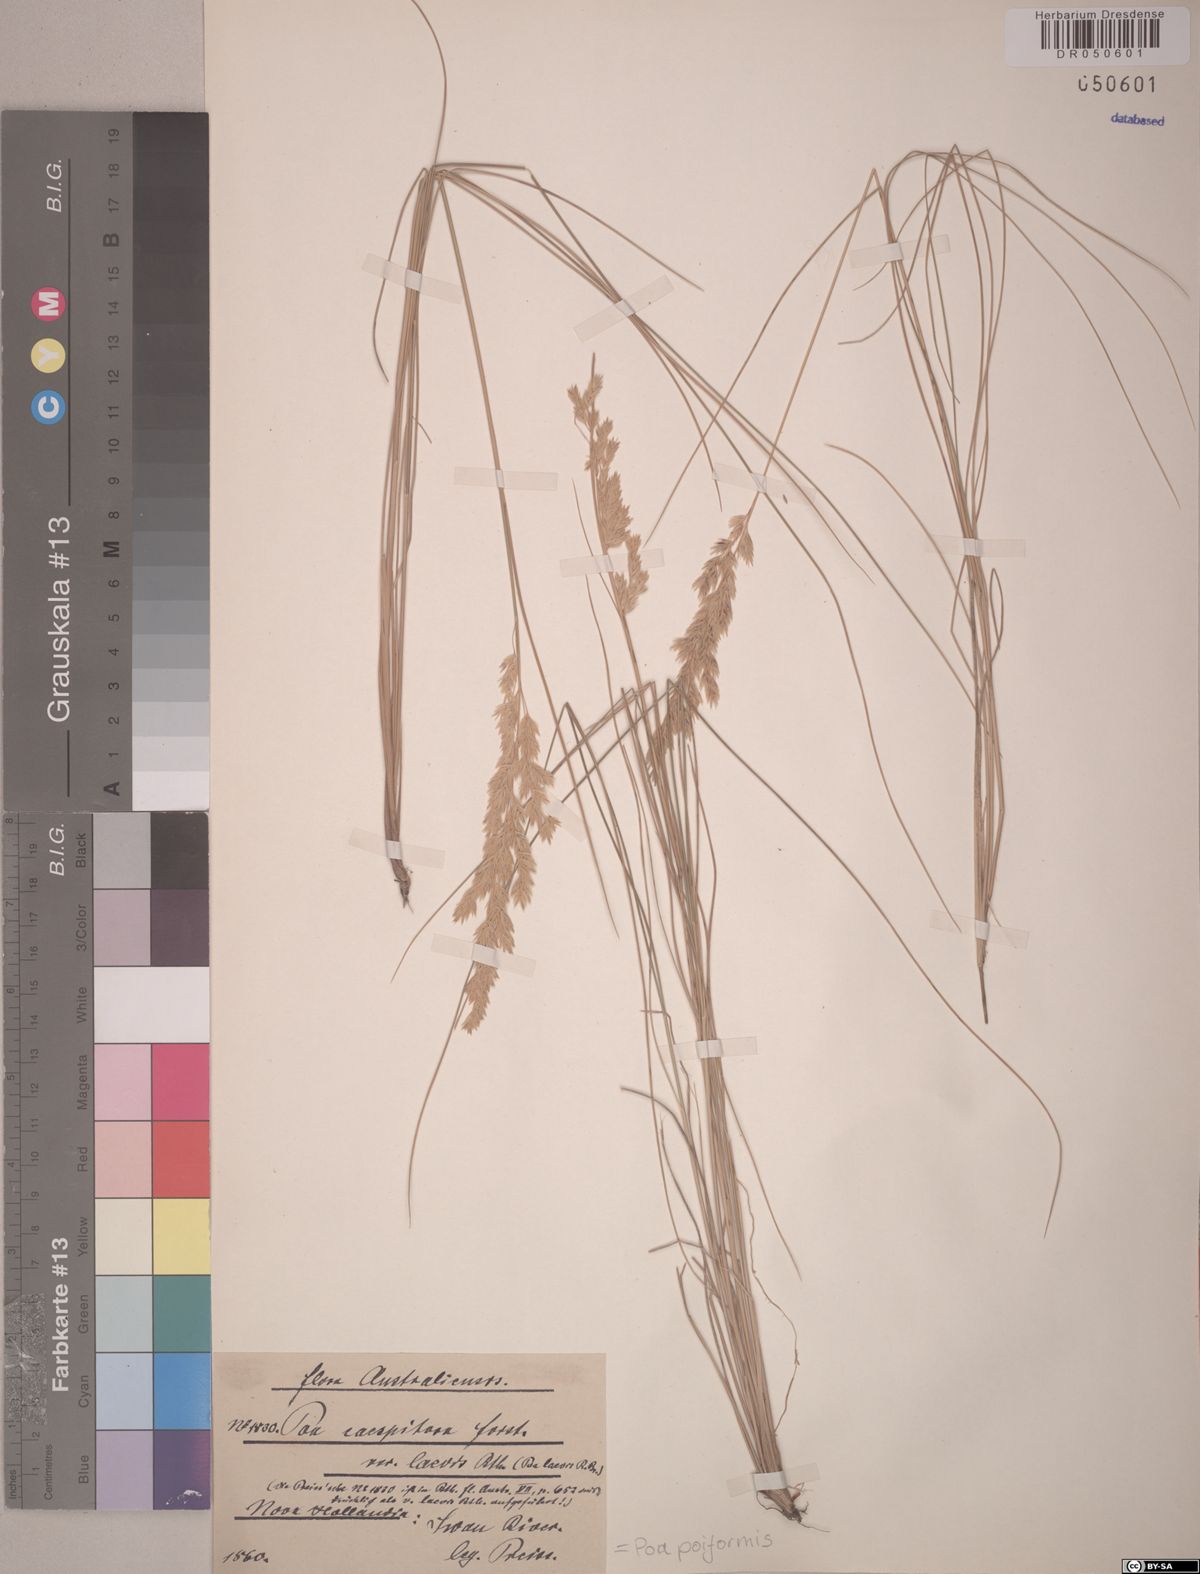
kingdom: Plantae
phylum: Tracheophyta
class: Liliopsida
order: Poales
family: Poaceae
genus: Poa
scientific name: Poa poiformis
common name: Tussock poa
